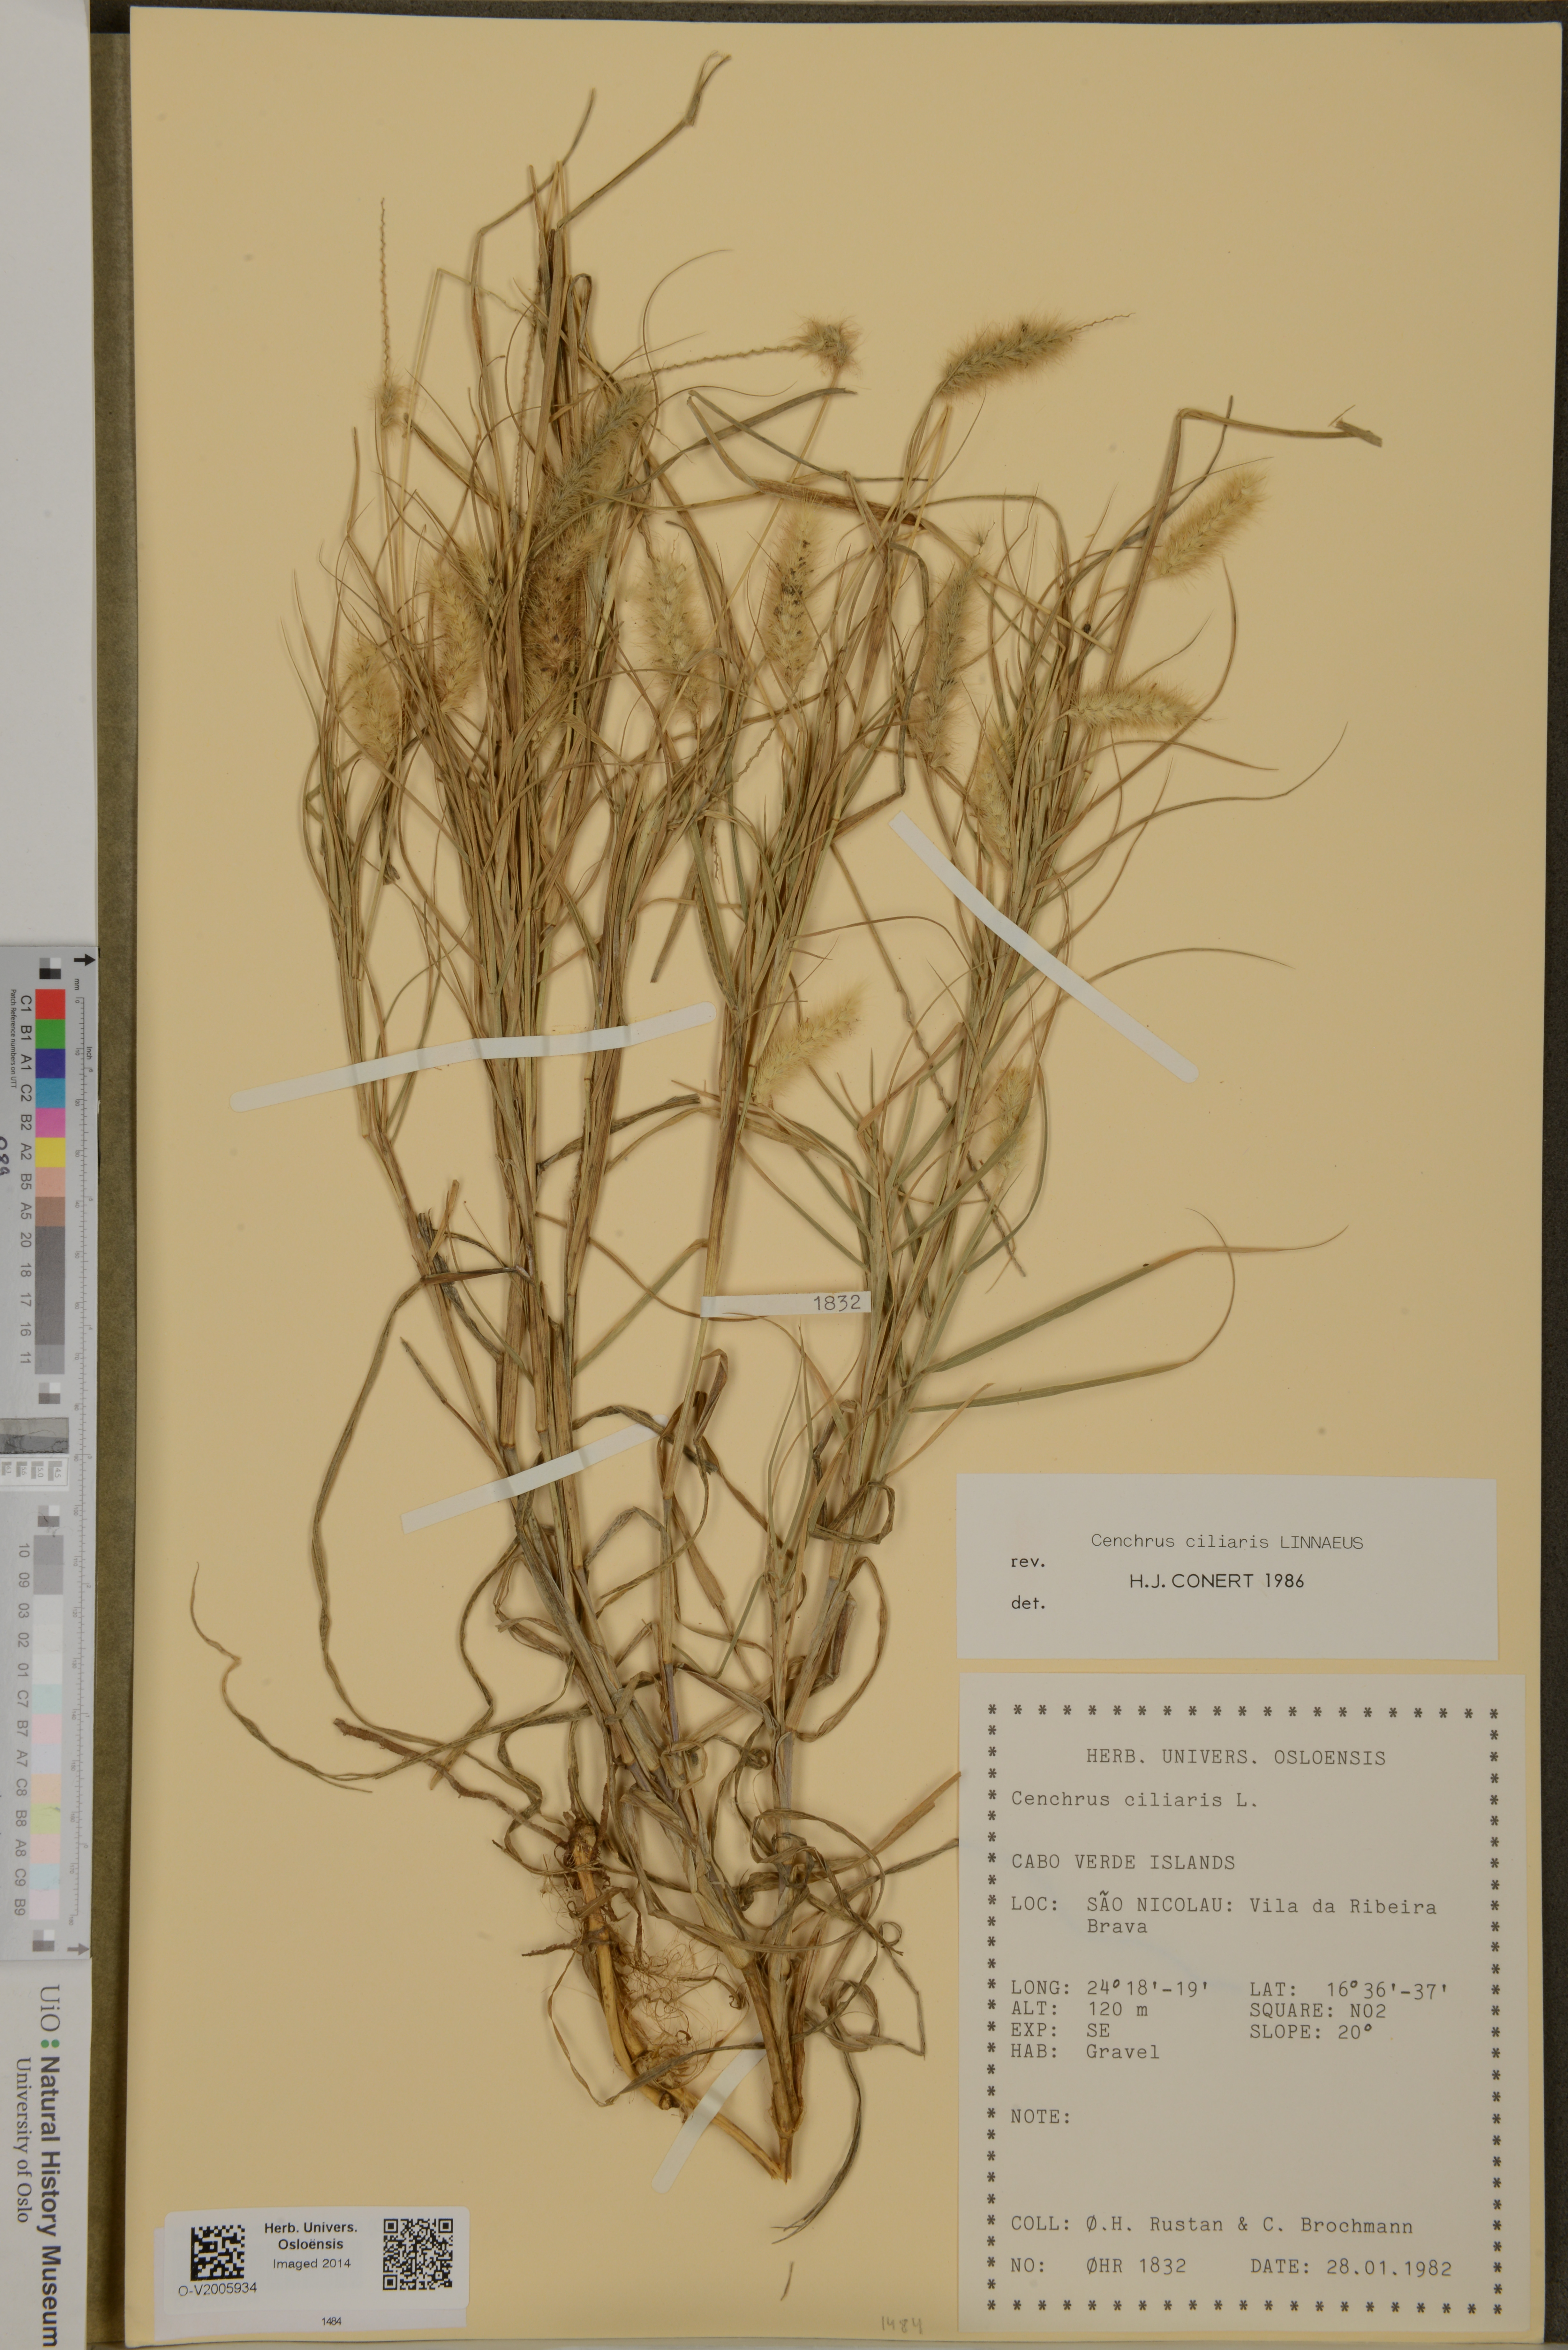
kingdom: Plantae
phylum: Tracheophyta
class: Liliopsida
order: Poales
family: Poaceae
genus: Cenchrus
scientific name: Cenchrus ciliaris
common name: Buffelgrass
